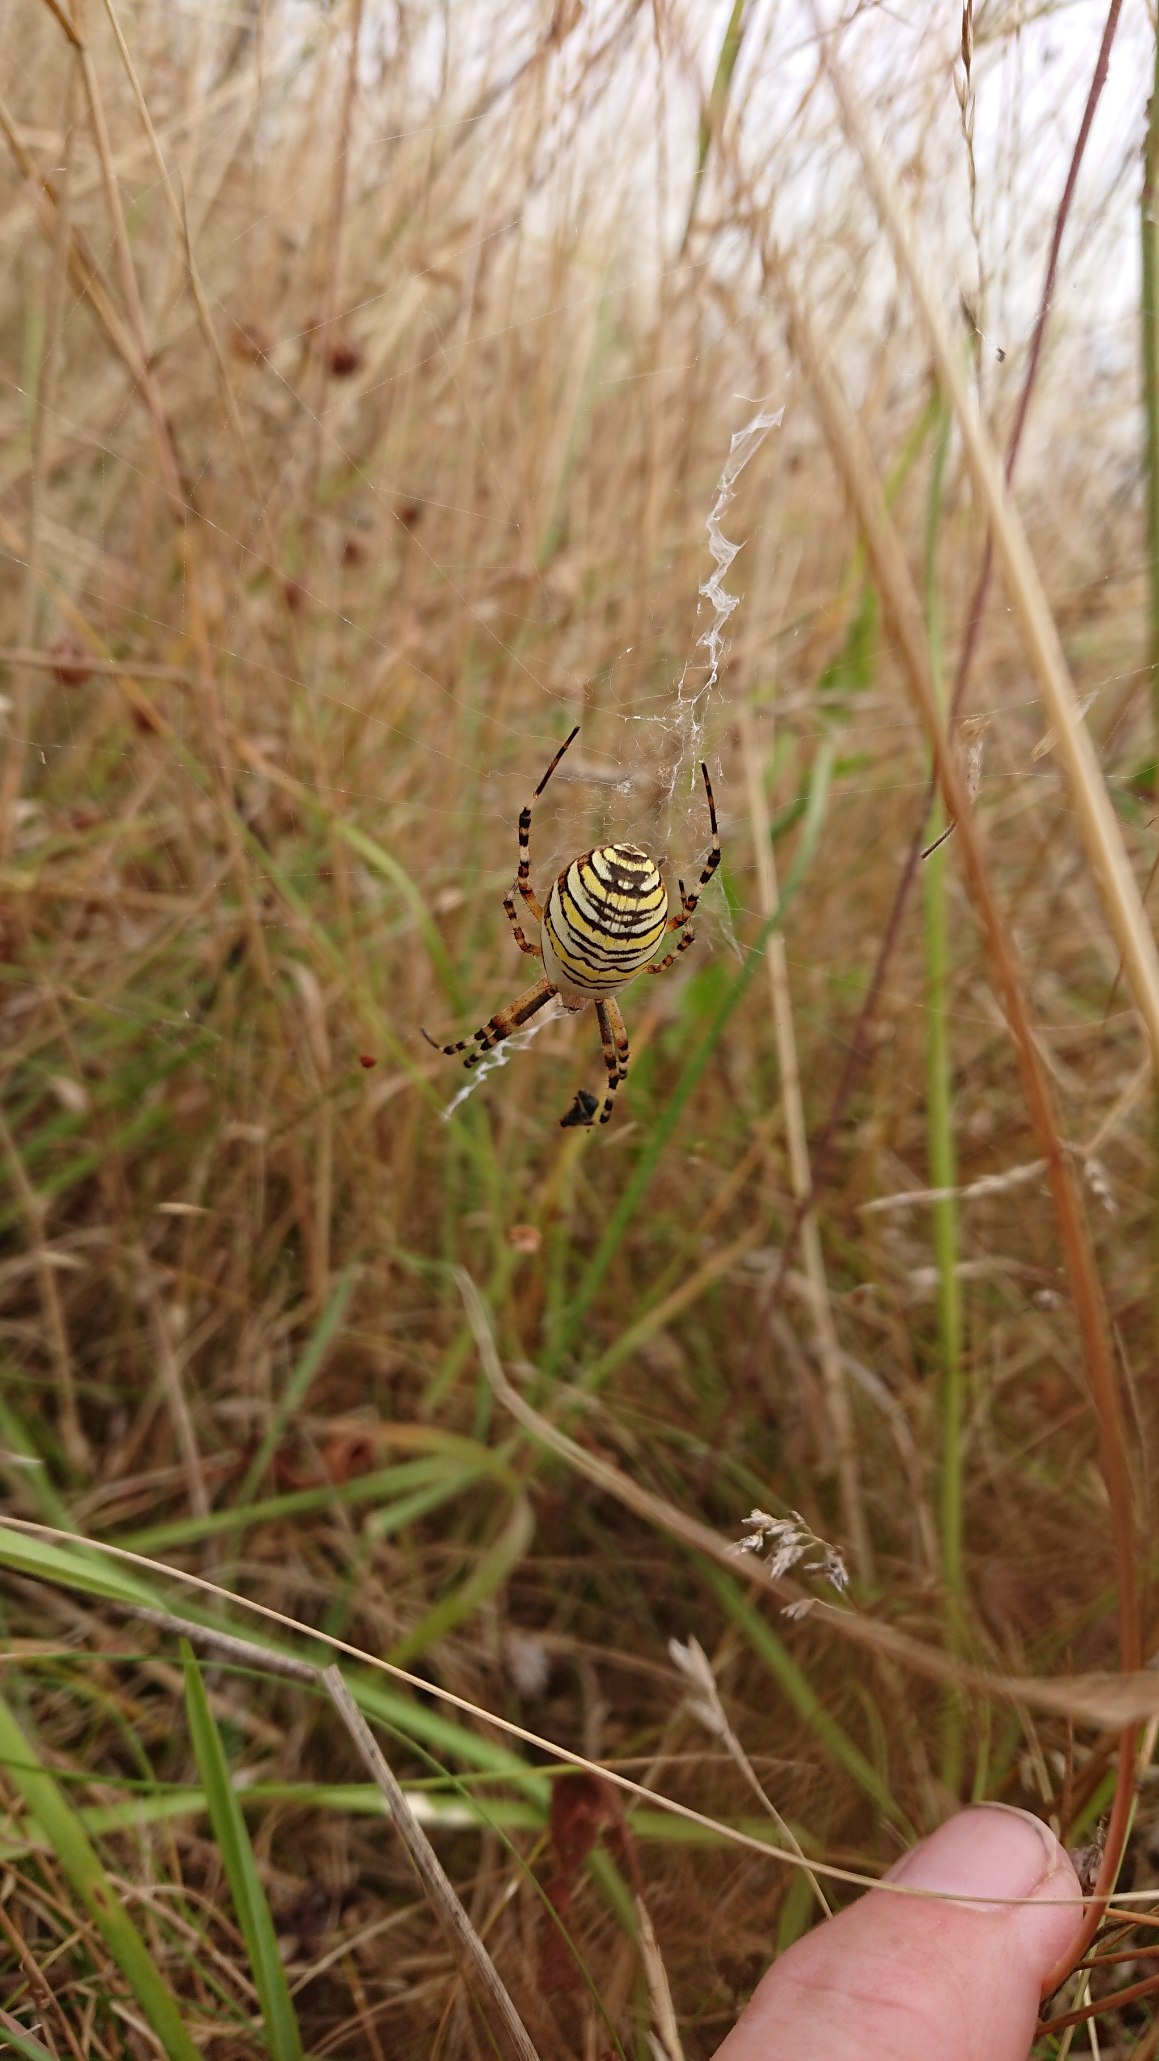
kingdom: Animalia
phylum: Arthropoda
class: Arachnida
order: Araneae
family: Araneidae
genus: Argiope
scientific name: Argiope bruennichi
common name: Hvepseedderkop
